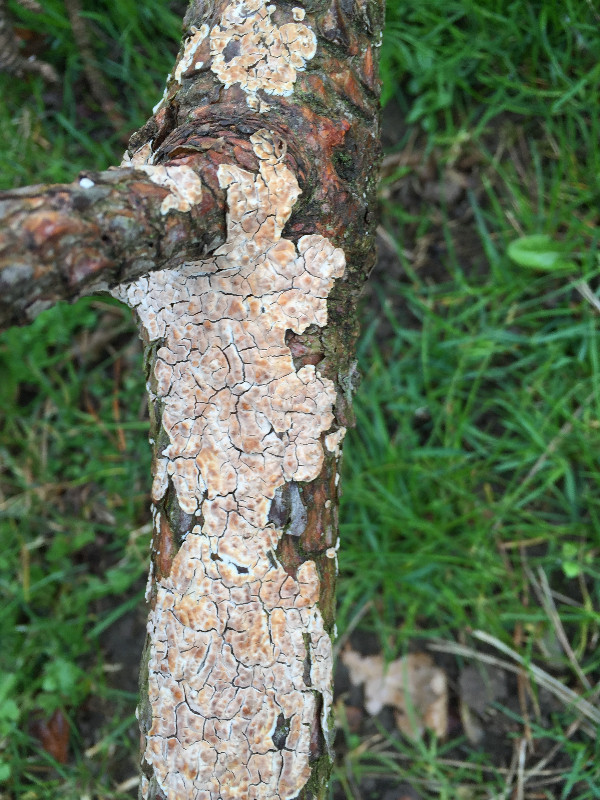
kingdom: Fungi
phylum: Basidiomycota
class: Agaricomycetes
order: Agaricales
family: Physalacriaceae
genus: Cylindrobasidium
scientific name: Cylindrobasidium evolvens
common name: sprækkehinde
